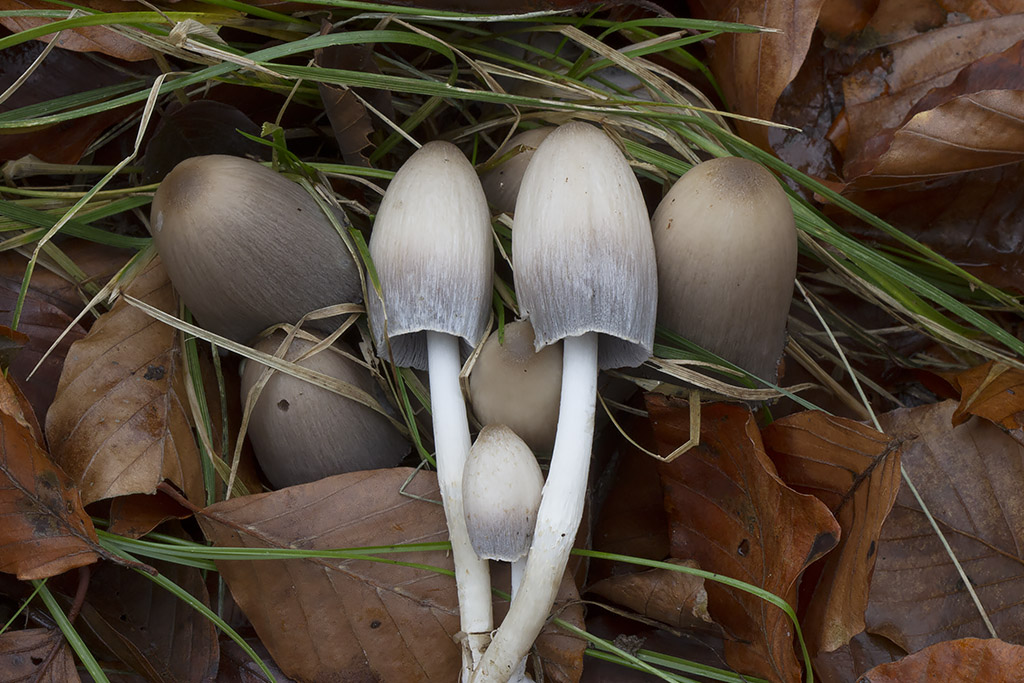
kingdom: Fungi
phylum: Basidiomycota
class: Agaricomycetes
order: Agaricales
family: Psathyrellaceae
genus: Coprinopsis
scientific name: Coprinopsis acuminata
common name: kegle-blækhat
